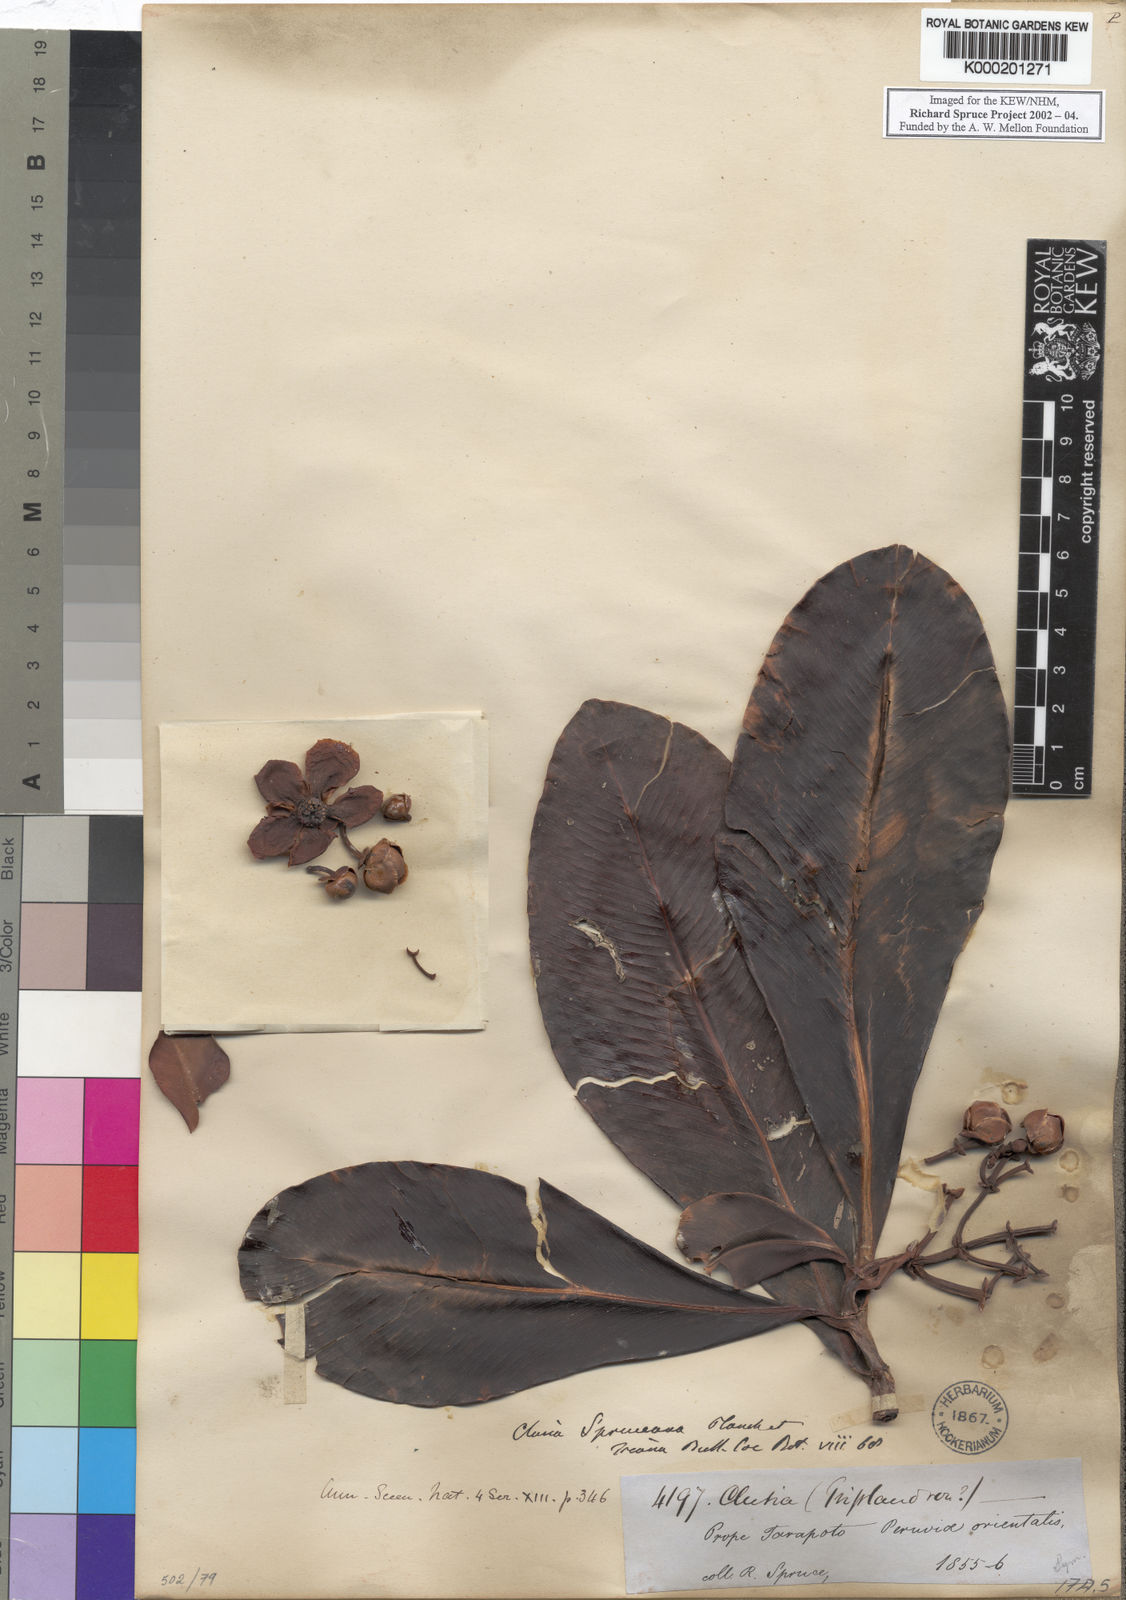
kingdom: Plantae
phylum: Tracheophyta
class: Magnoliopsida
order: Malpighiales
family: Clusiaceae
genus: Clusia
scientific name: Clusia spruceana
